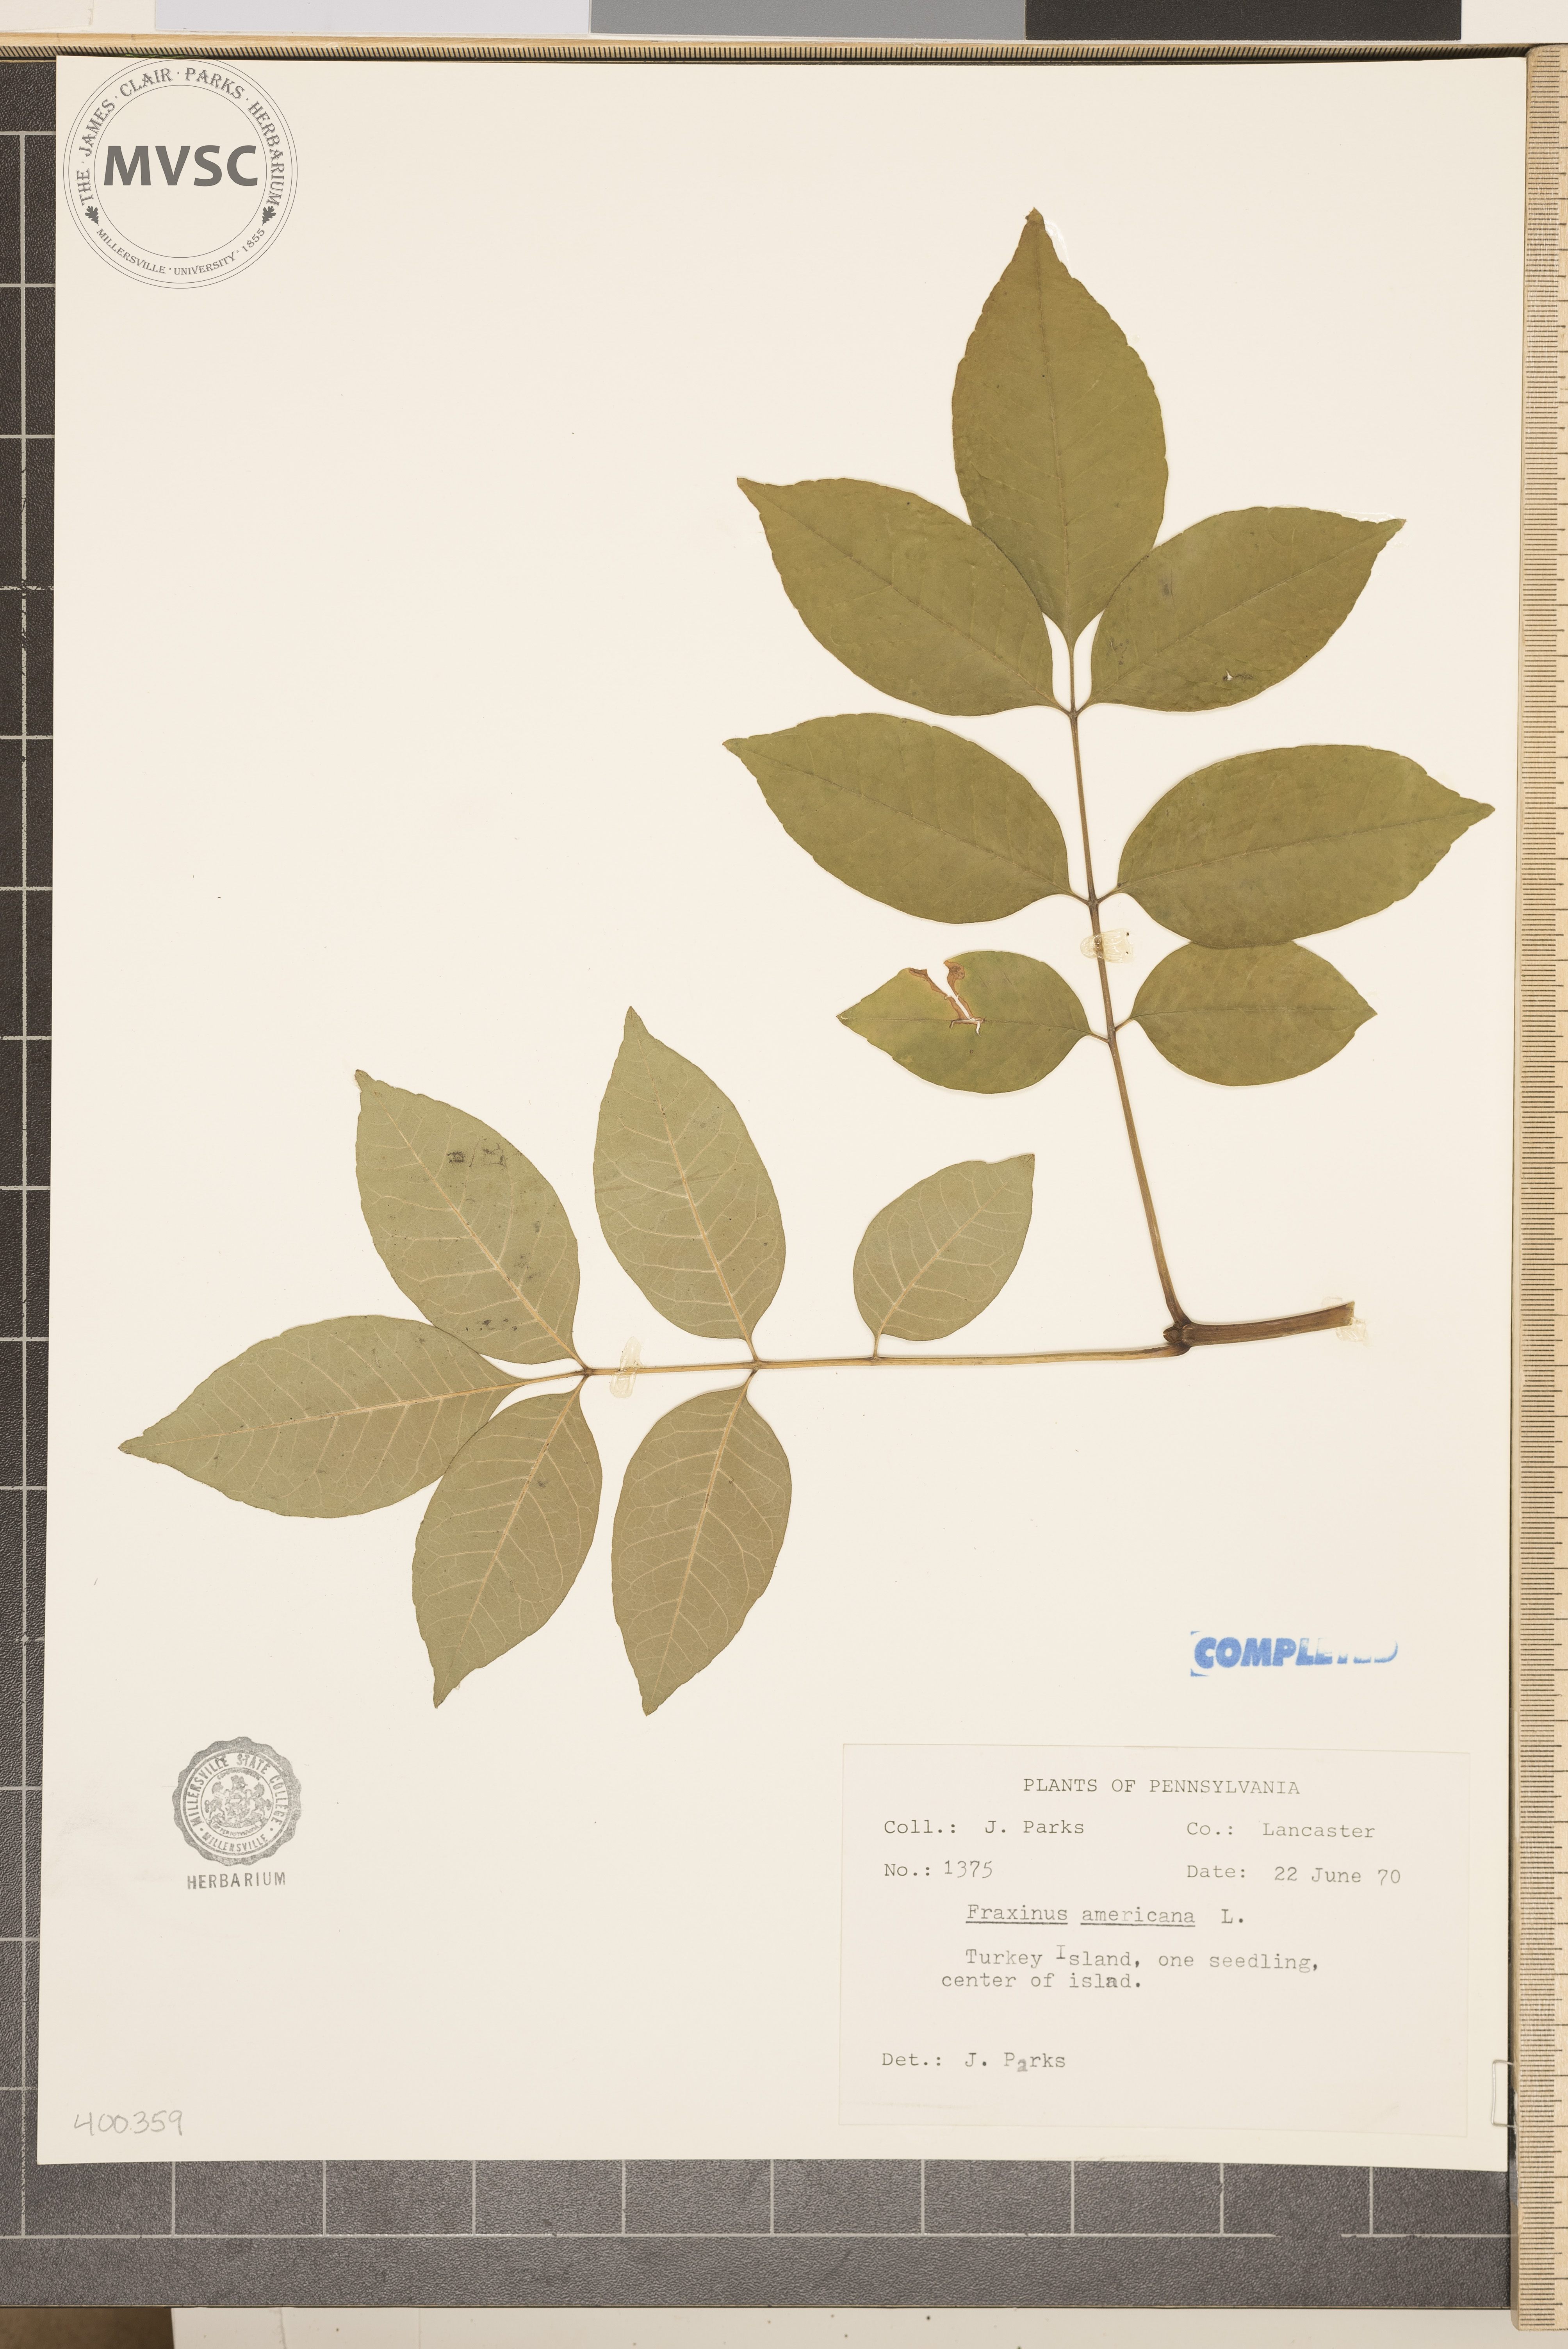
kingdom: Plantae
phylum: Tracheophyta
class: Magnoliopsida
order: Lamiales
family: Oleaceae
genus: Fraxinus
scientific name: Fraxinus americana
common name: ash
